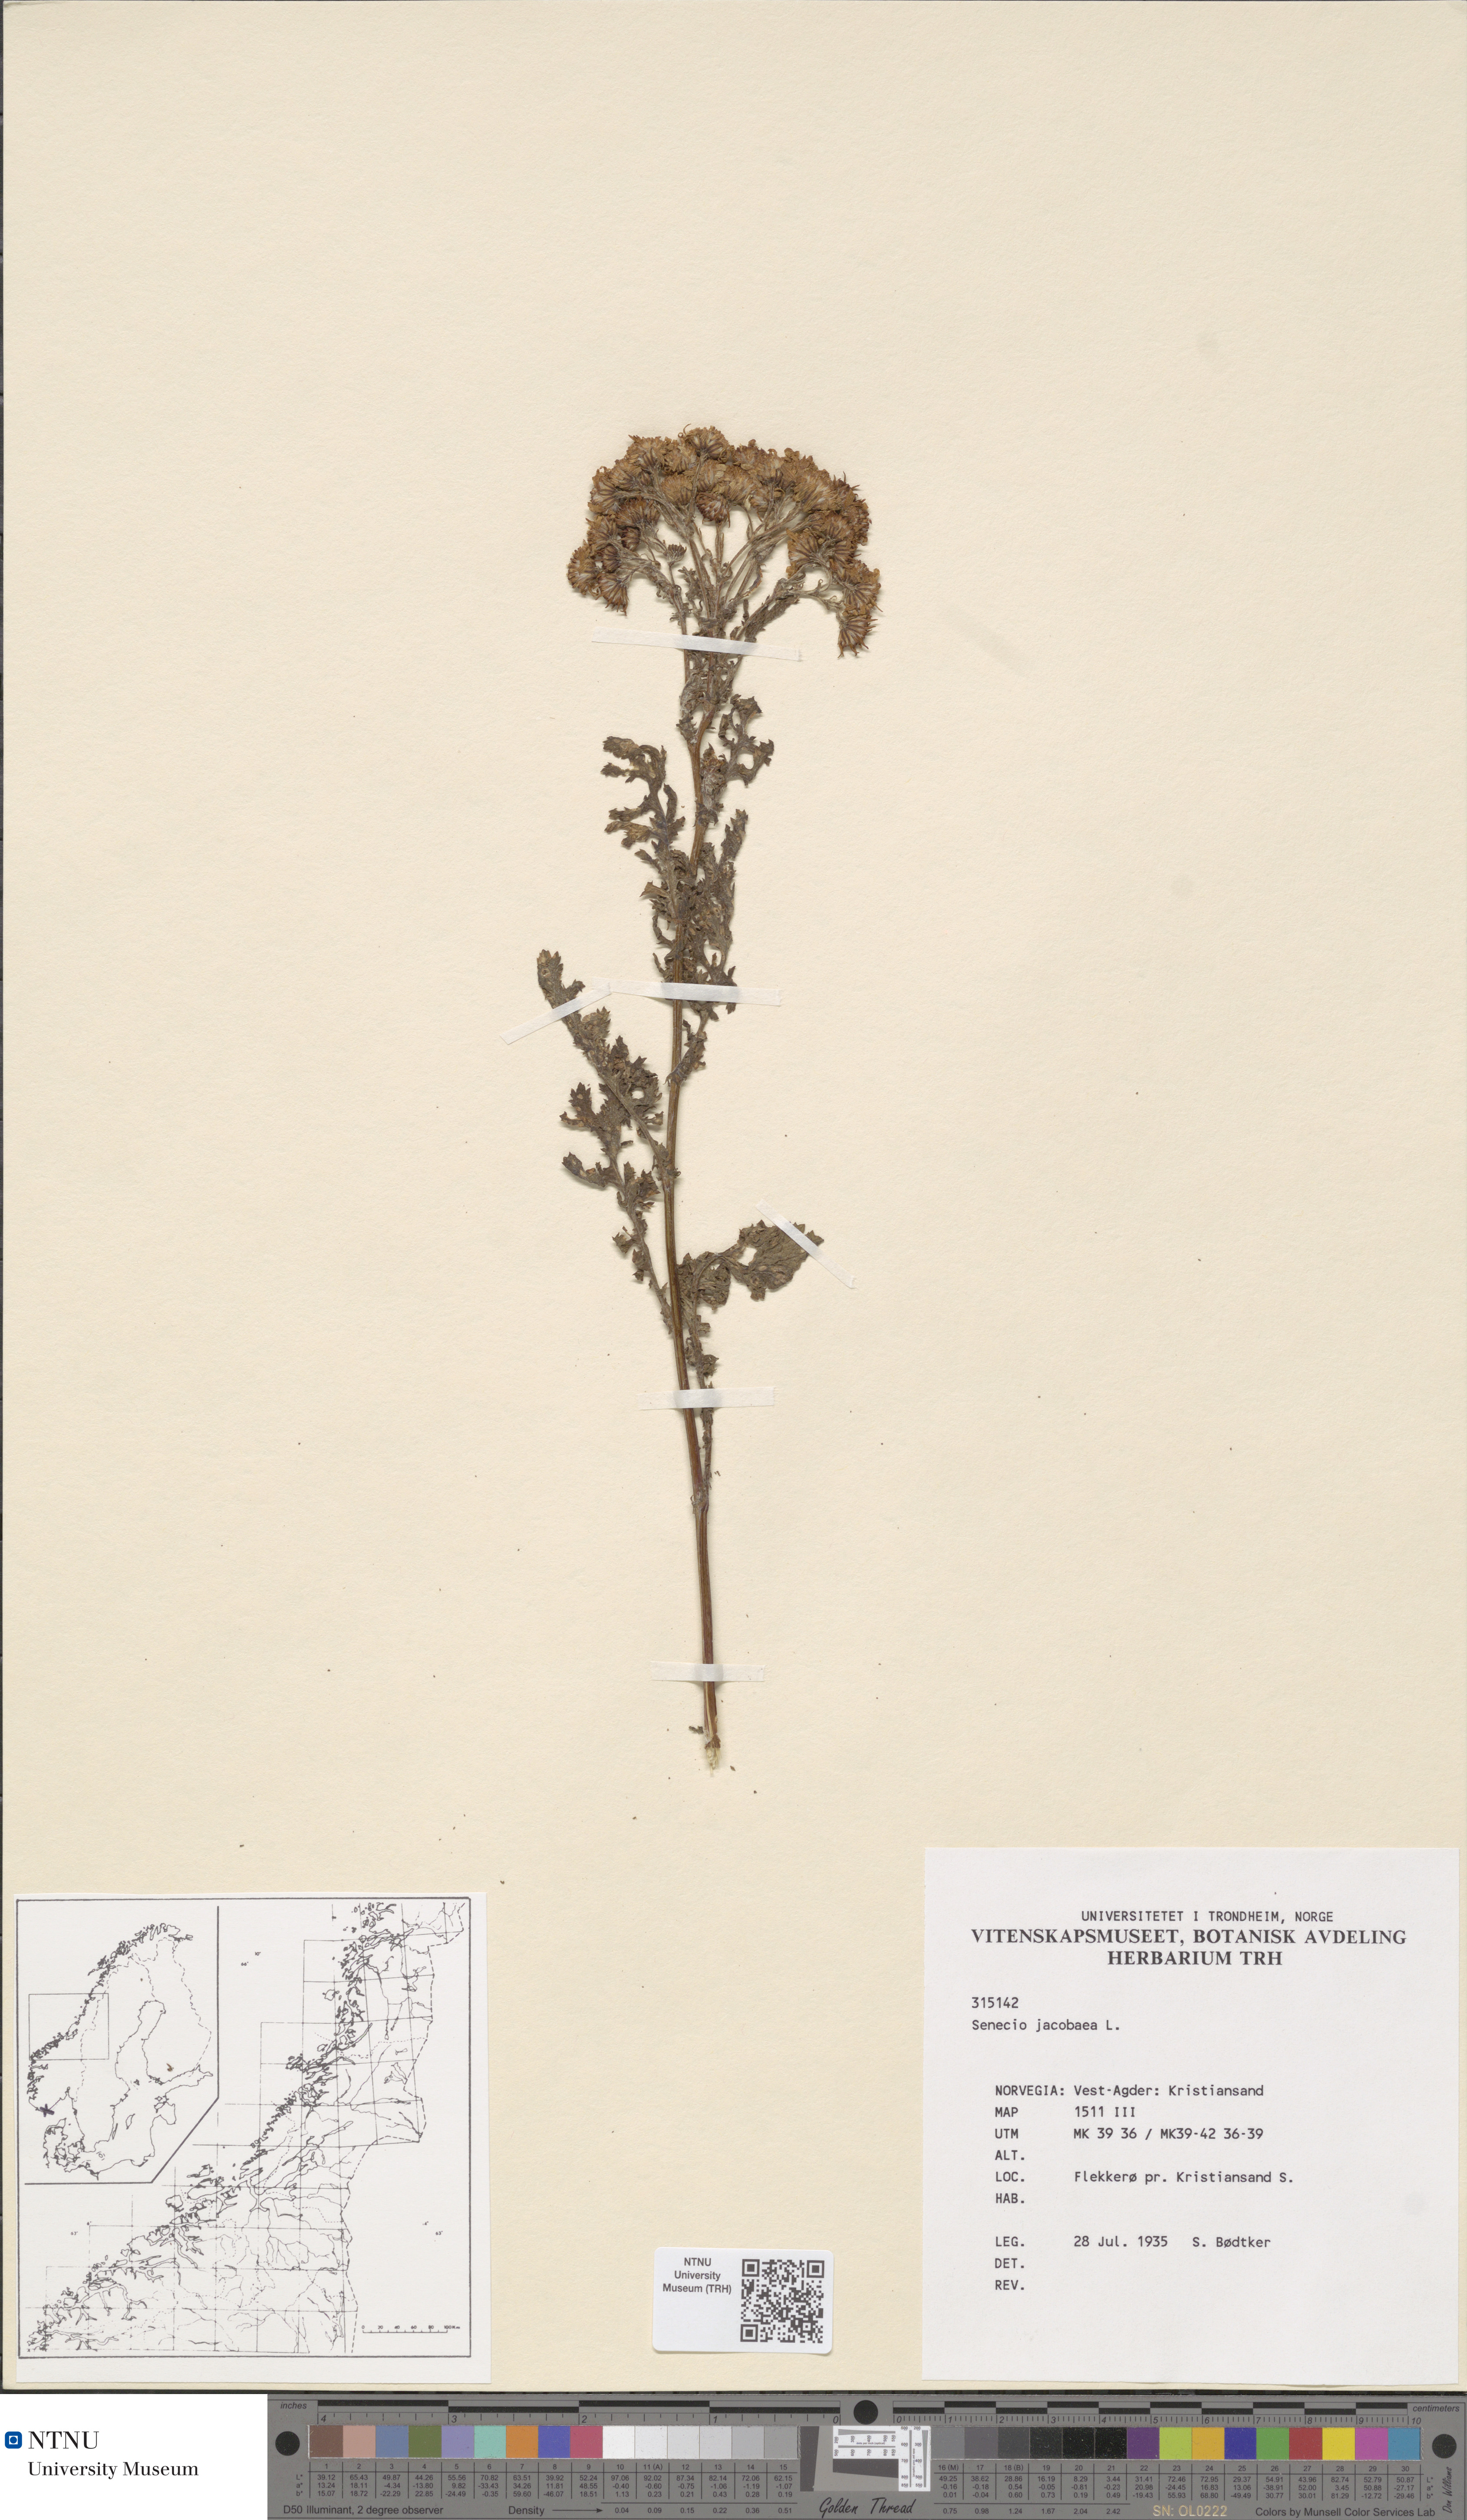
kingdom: Plantae
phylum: Tracheophyta
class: Magnoliopsida
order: Asterales
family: Asteraceae
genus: Jacobaea
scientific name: Jacobaea vulgaris
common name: Stinking willie
